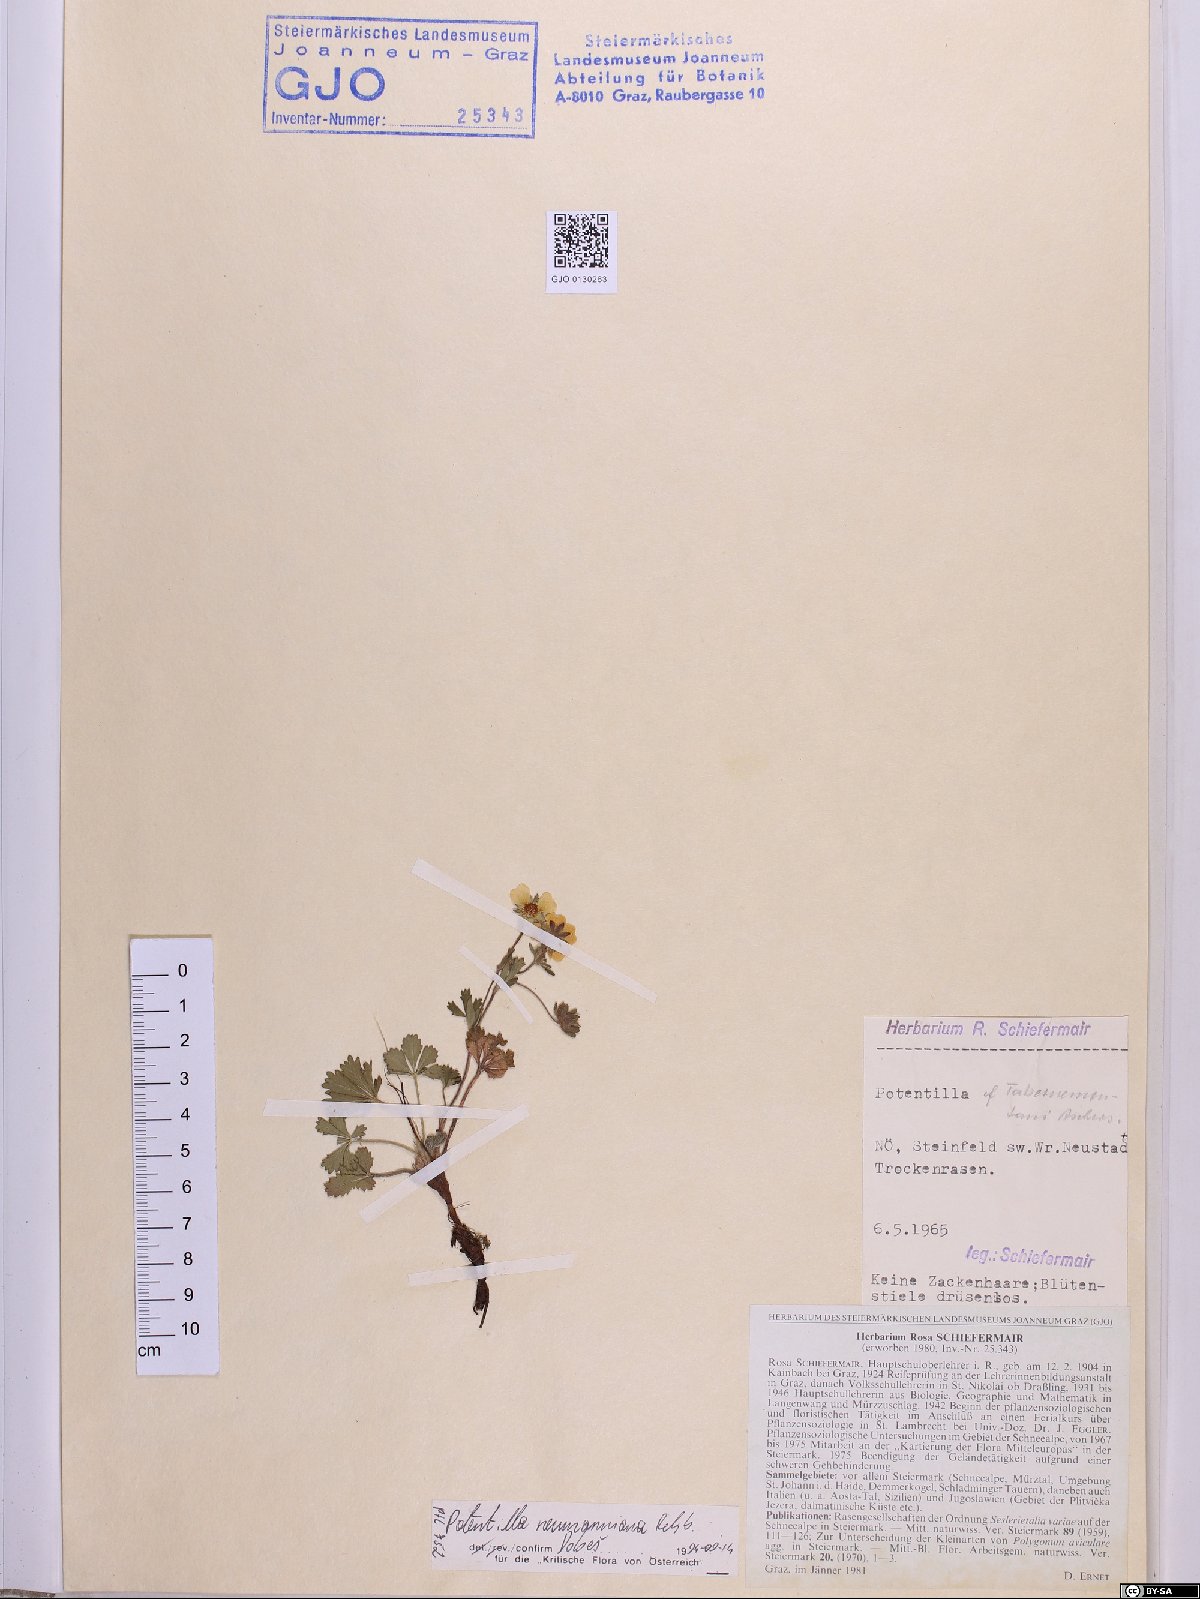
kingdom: Plantae
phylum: Tracheophyta
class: Magnoliopsida
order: Rosales
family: Rosaceae
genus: Potentilla
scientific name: Potentilla verna
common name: Spring cinquefoil
